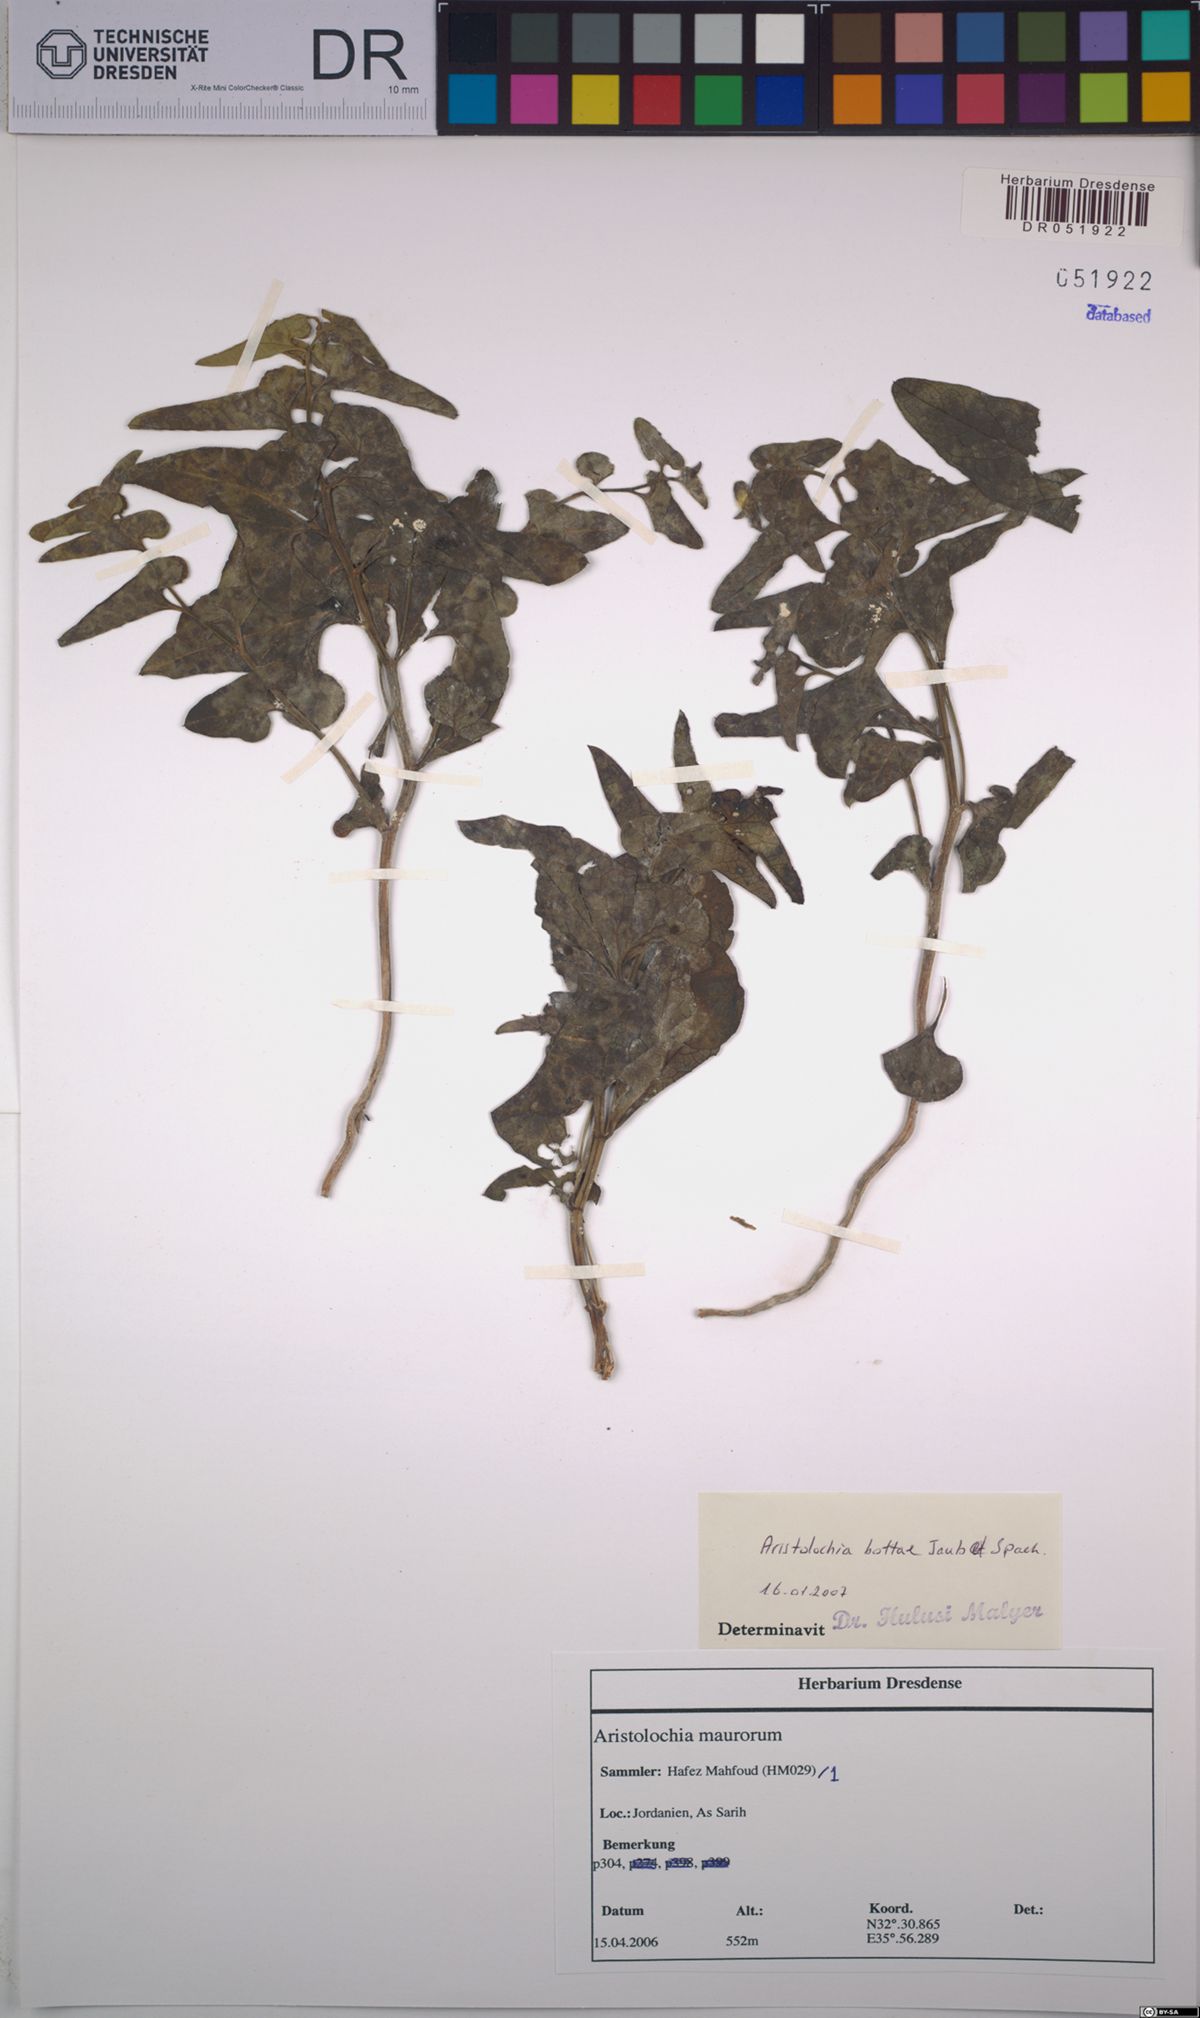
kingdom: Plantae
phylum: Tracheophyta
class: Magnoliopsida
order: Piperales
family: Aristolochiaceae
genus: Aristolochia
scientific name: Aristolochia bottae
